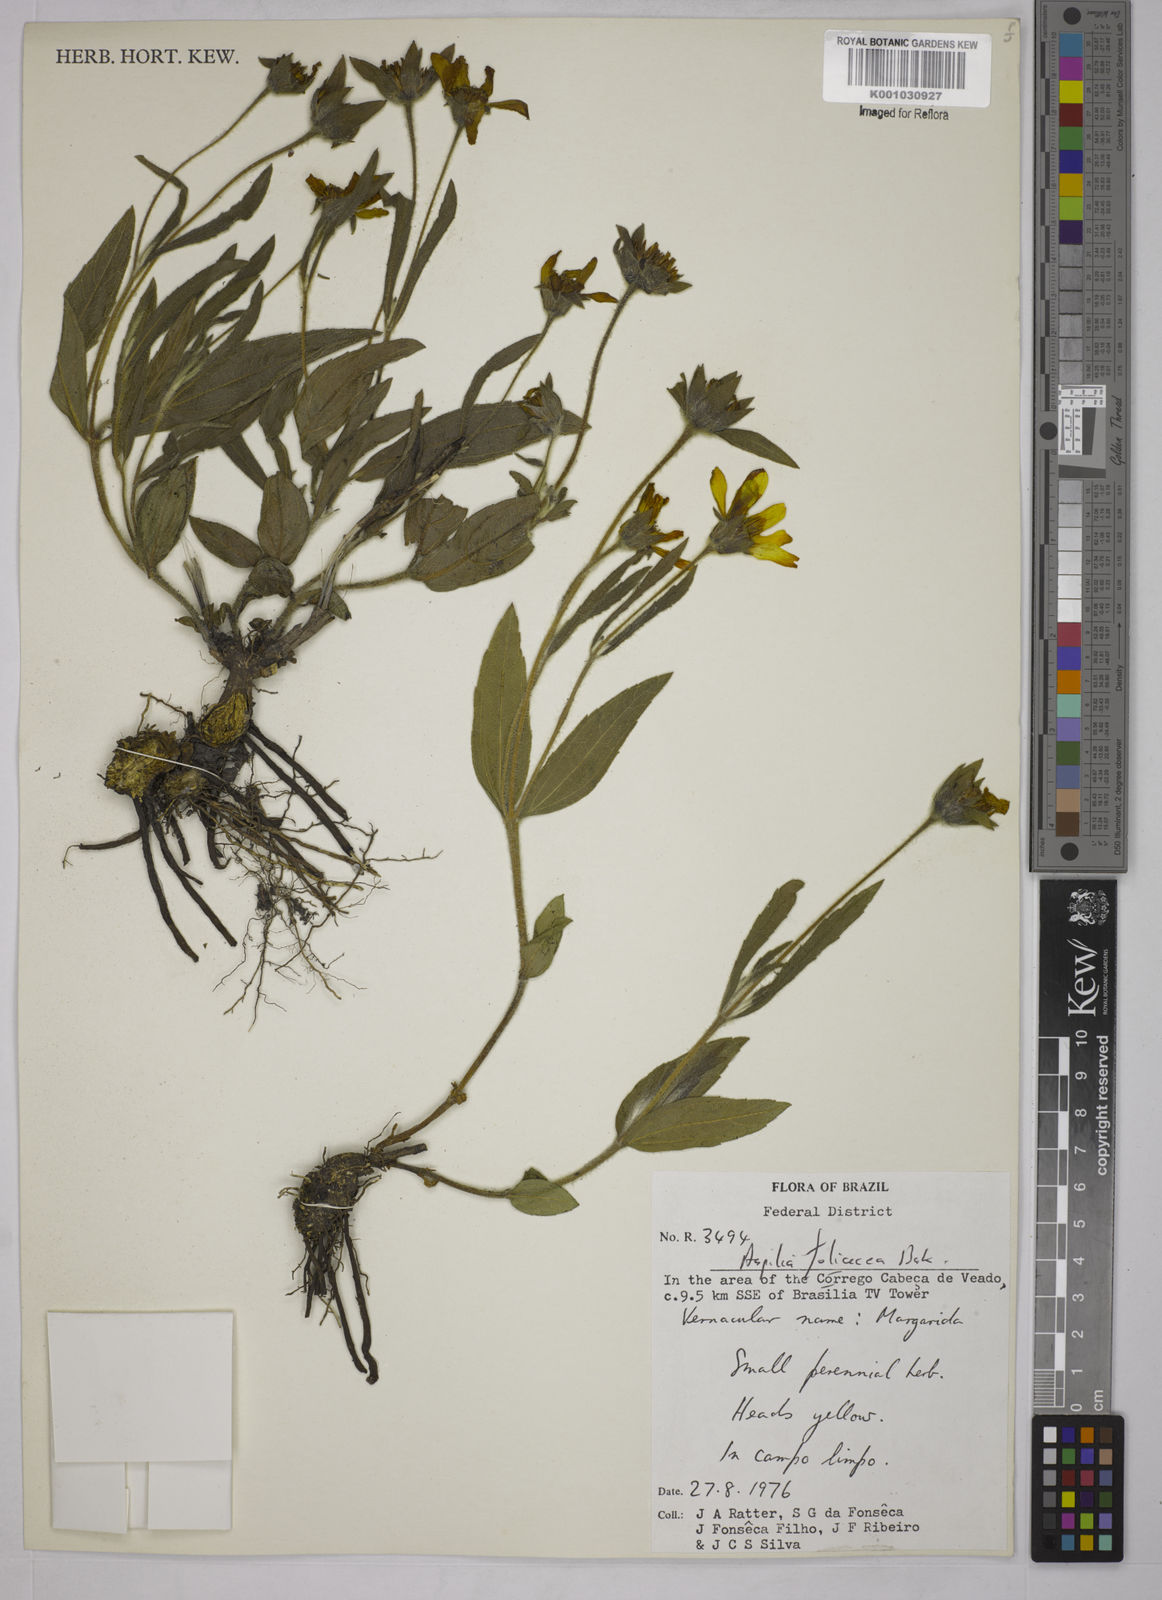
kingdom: Plantae
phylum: Tracheophyta
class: Magnoliopsida
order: Asterales
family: Asteraceae
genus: Wedelia
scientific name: Wedelia foliacea
